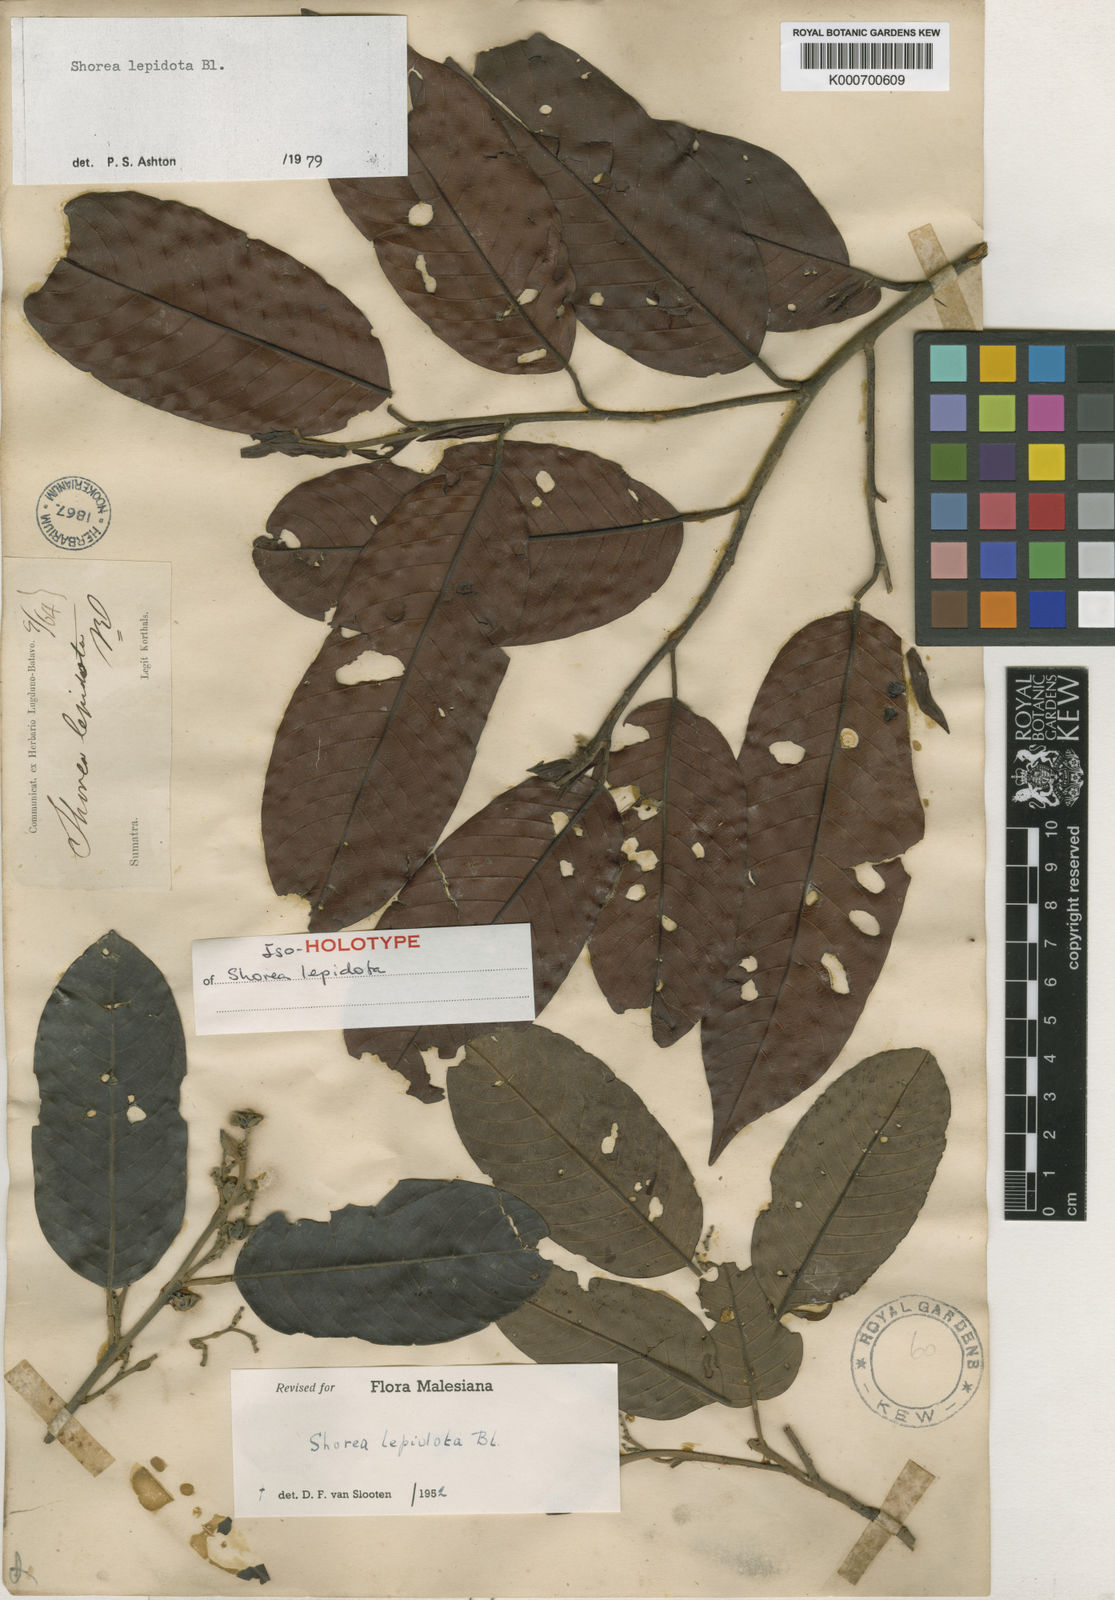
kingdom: Plantae
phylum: Tracheophyta
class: Magnoliopsida
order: Malvales
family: Dipterocarpaceae
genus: Shorea
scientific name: Shorea lepidota
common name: Light red meranti
